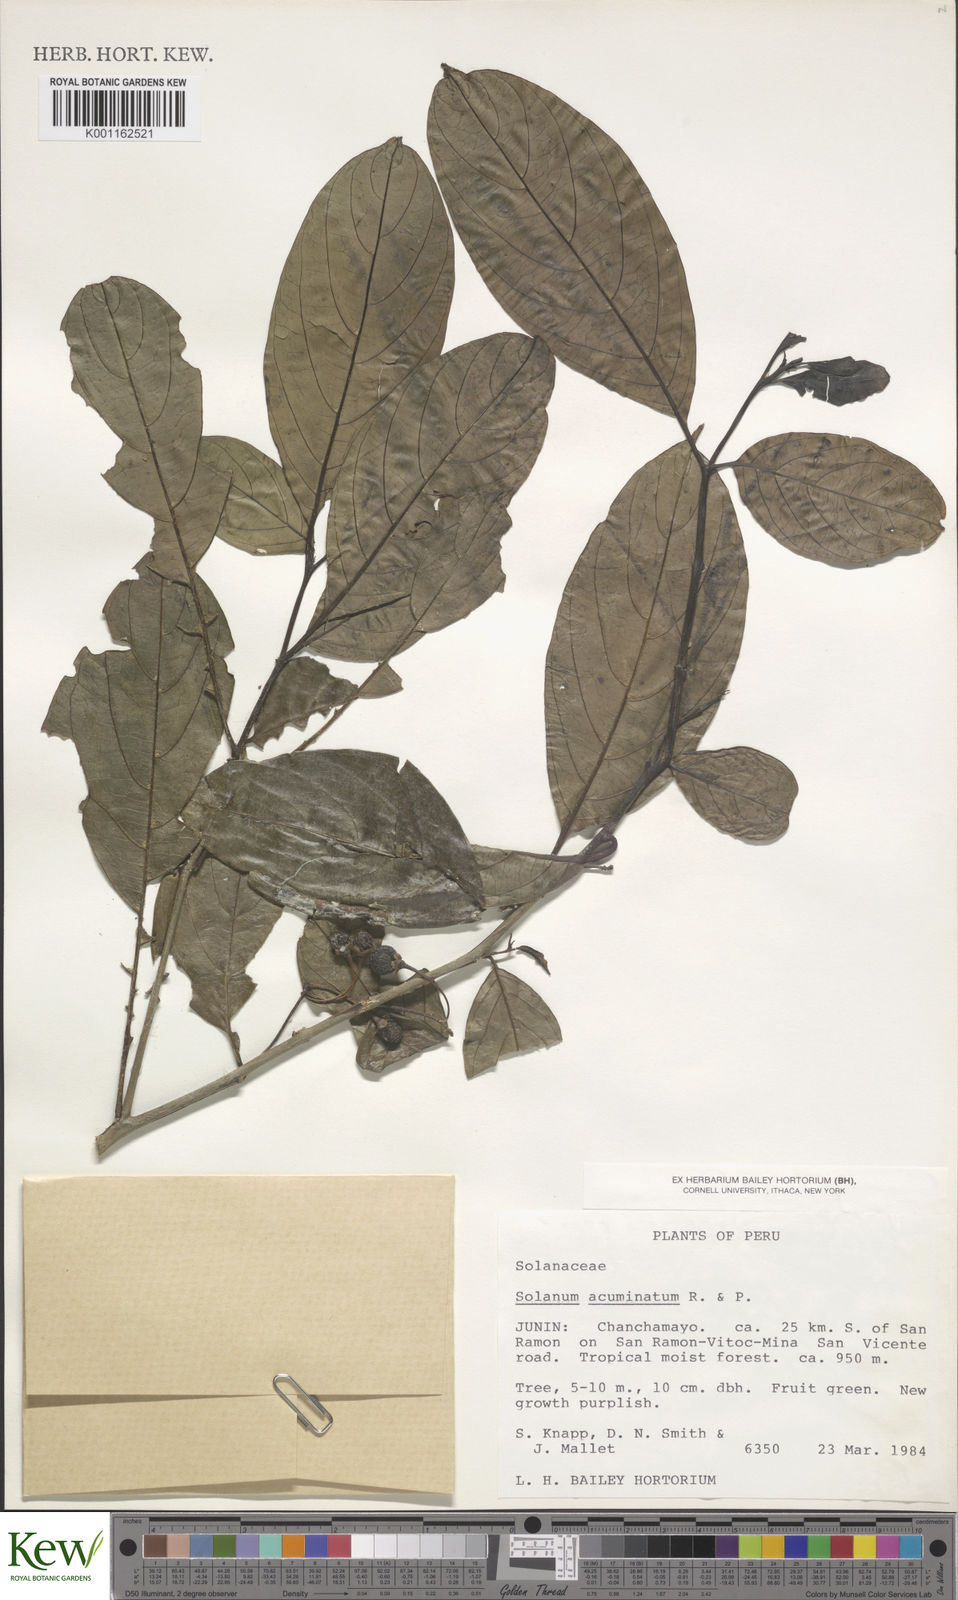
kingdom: Plantae
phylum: Tracheophyta
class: Magnoliopsida
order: Solanales
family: Solanaceae
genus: Solanum
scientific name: Solanum acuminatum
